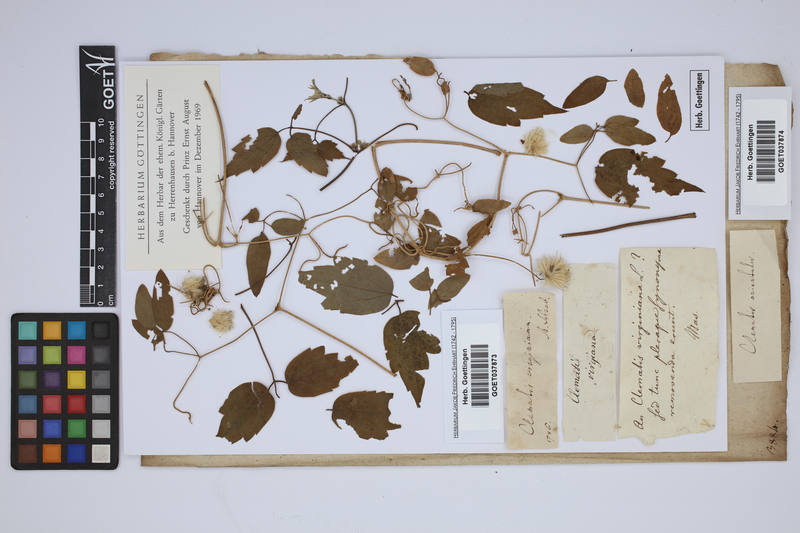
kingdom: Plantae
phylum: Tracheophyta
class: Magnoliopsida
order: Ranunculales
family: Ranunculaceae
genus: Clematis
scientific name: Clematis virginiana
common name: Virgin's-bower
